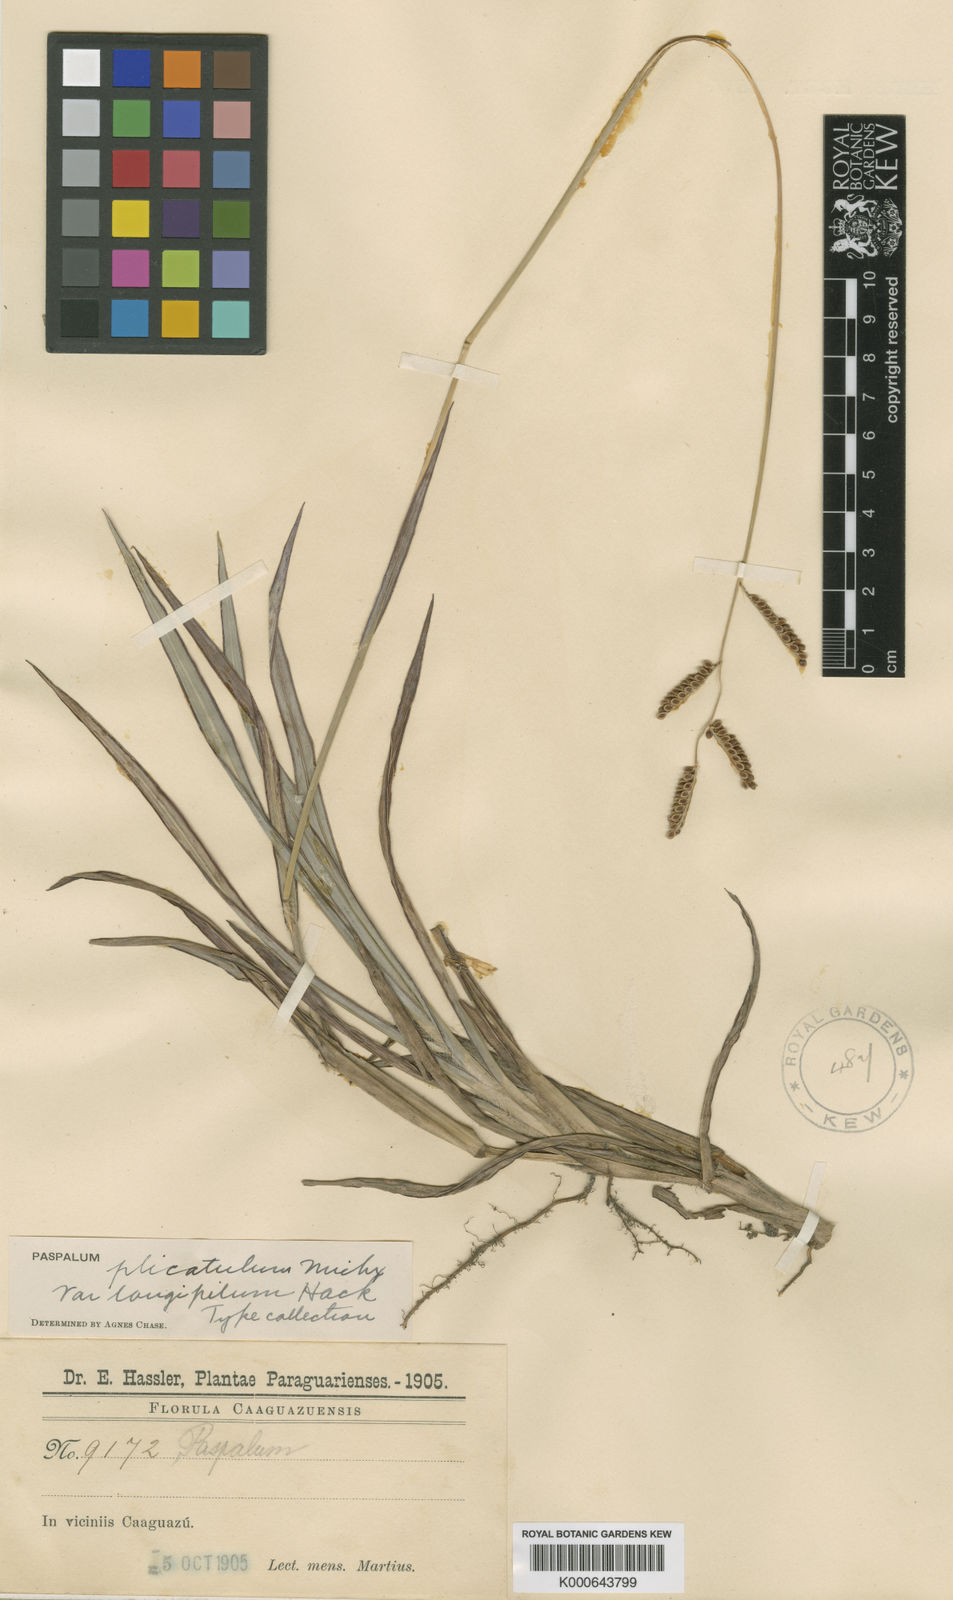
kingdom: Plantae
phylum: Tracheophyta
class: Liliopsida
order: Poales
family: Poaceae
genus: Paspalum
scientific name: Paspalum plicatulum
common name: Top paspalum
